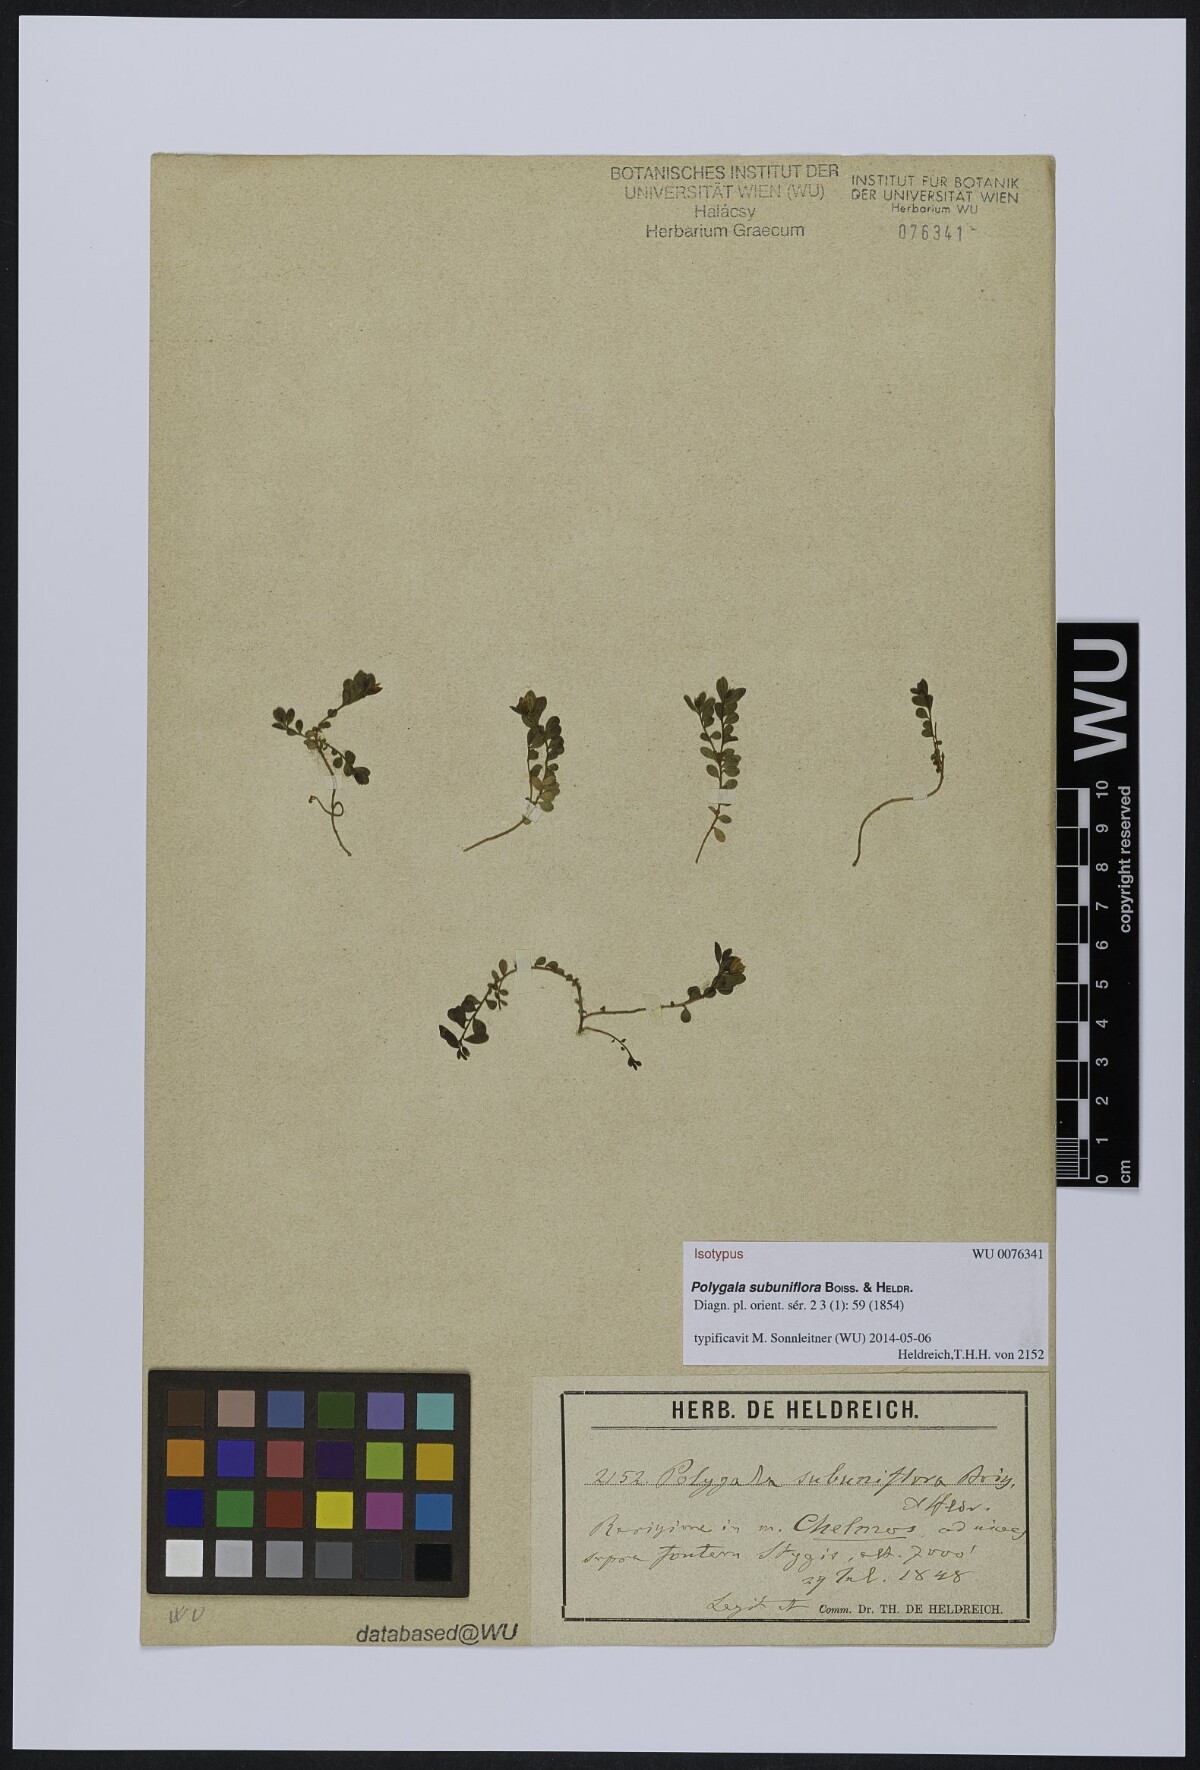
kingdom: Plantae
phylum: Tracheophyta
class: Magnoliopsida
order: Fabales
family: Polygalaceae
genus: Polygala
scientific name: Polygala subuniflora
